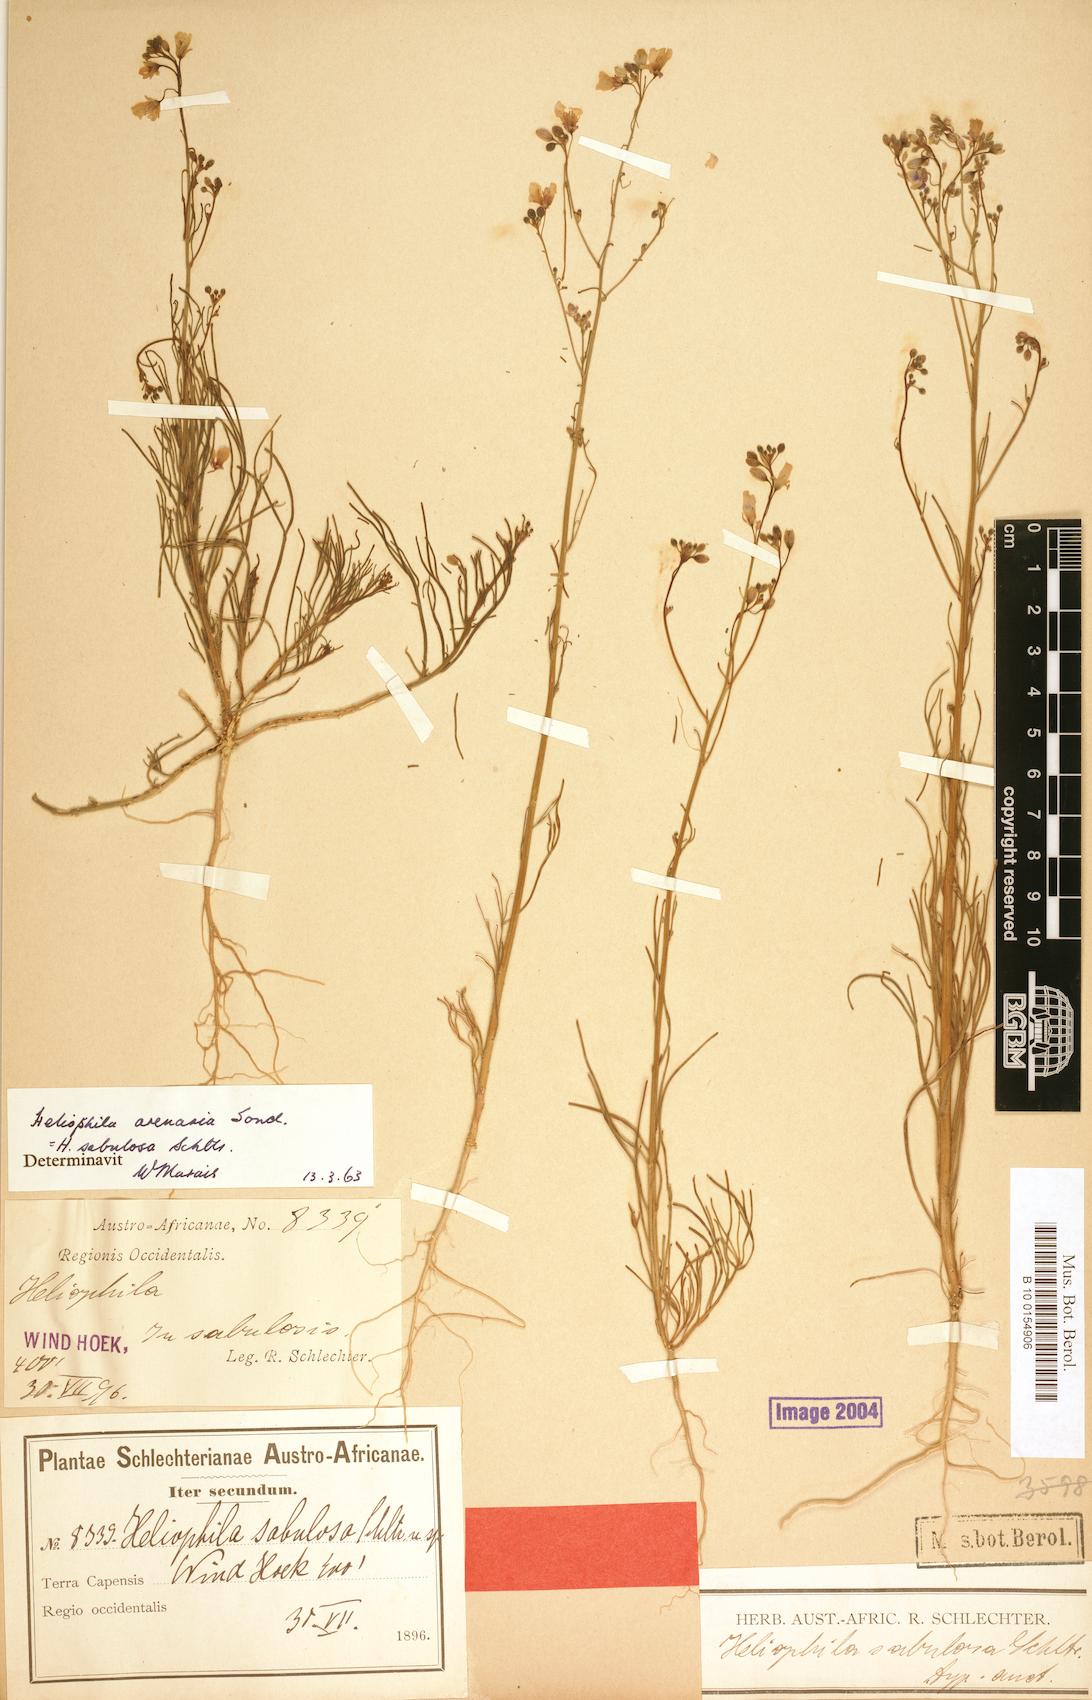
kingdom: Plantae
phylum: Tracheophyta
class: Magnoliopsida
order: Brassicales
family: Brassicaceae
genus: Heliophila
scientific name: Heliophila arenaria
